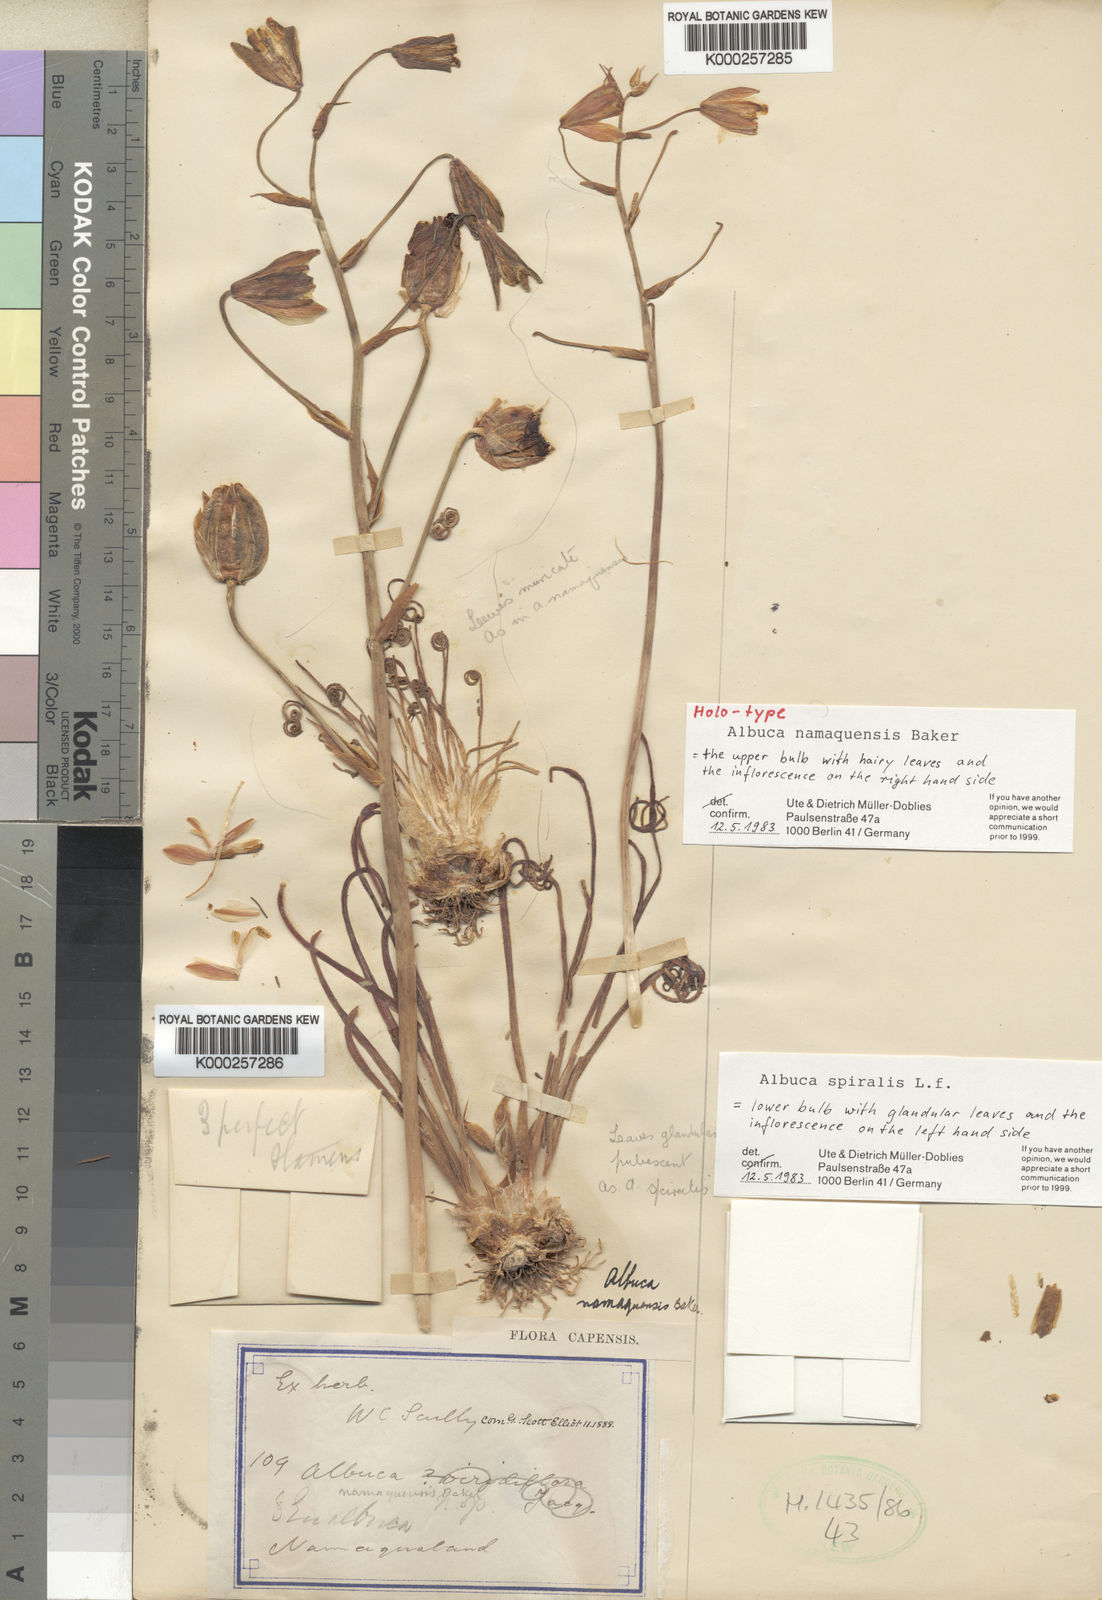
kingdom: Plantae
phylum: Tracheophyta
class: Liliopsida
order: Asparagales
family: Asparagaceae
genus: Albuca
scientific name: Albuca namaquensis
